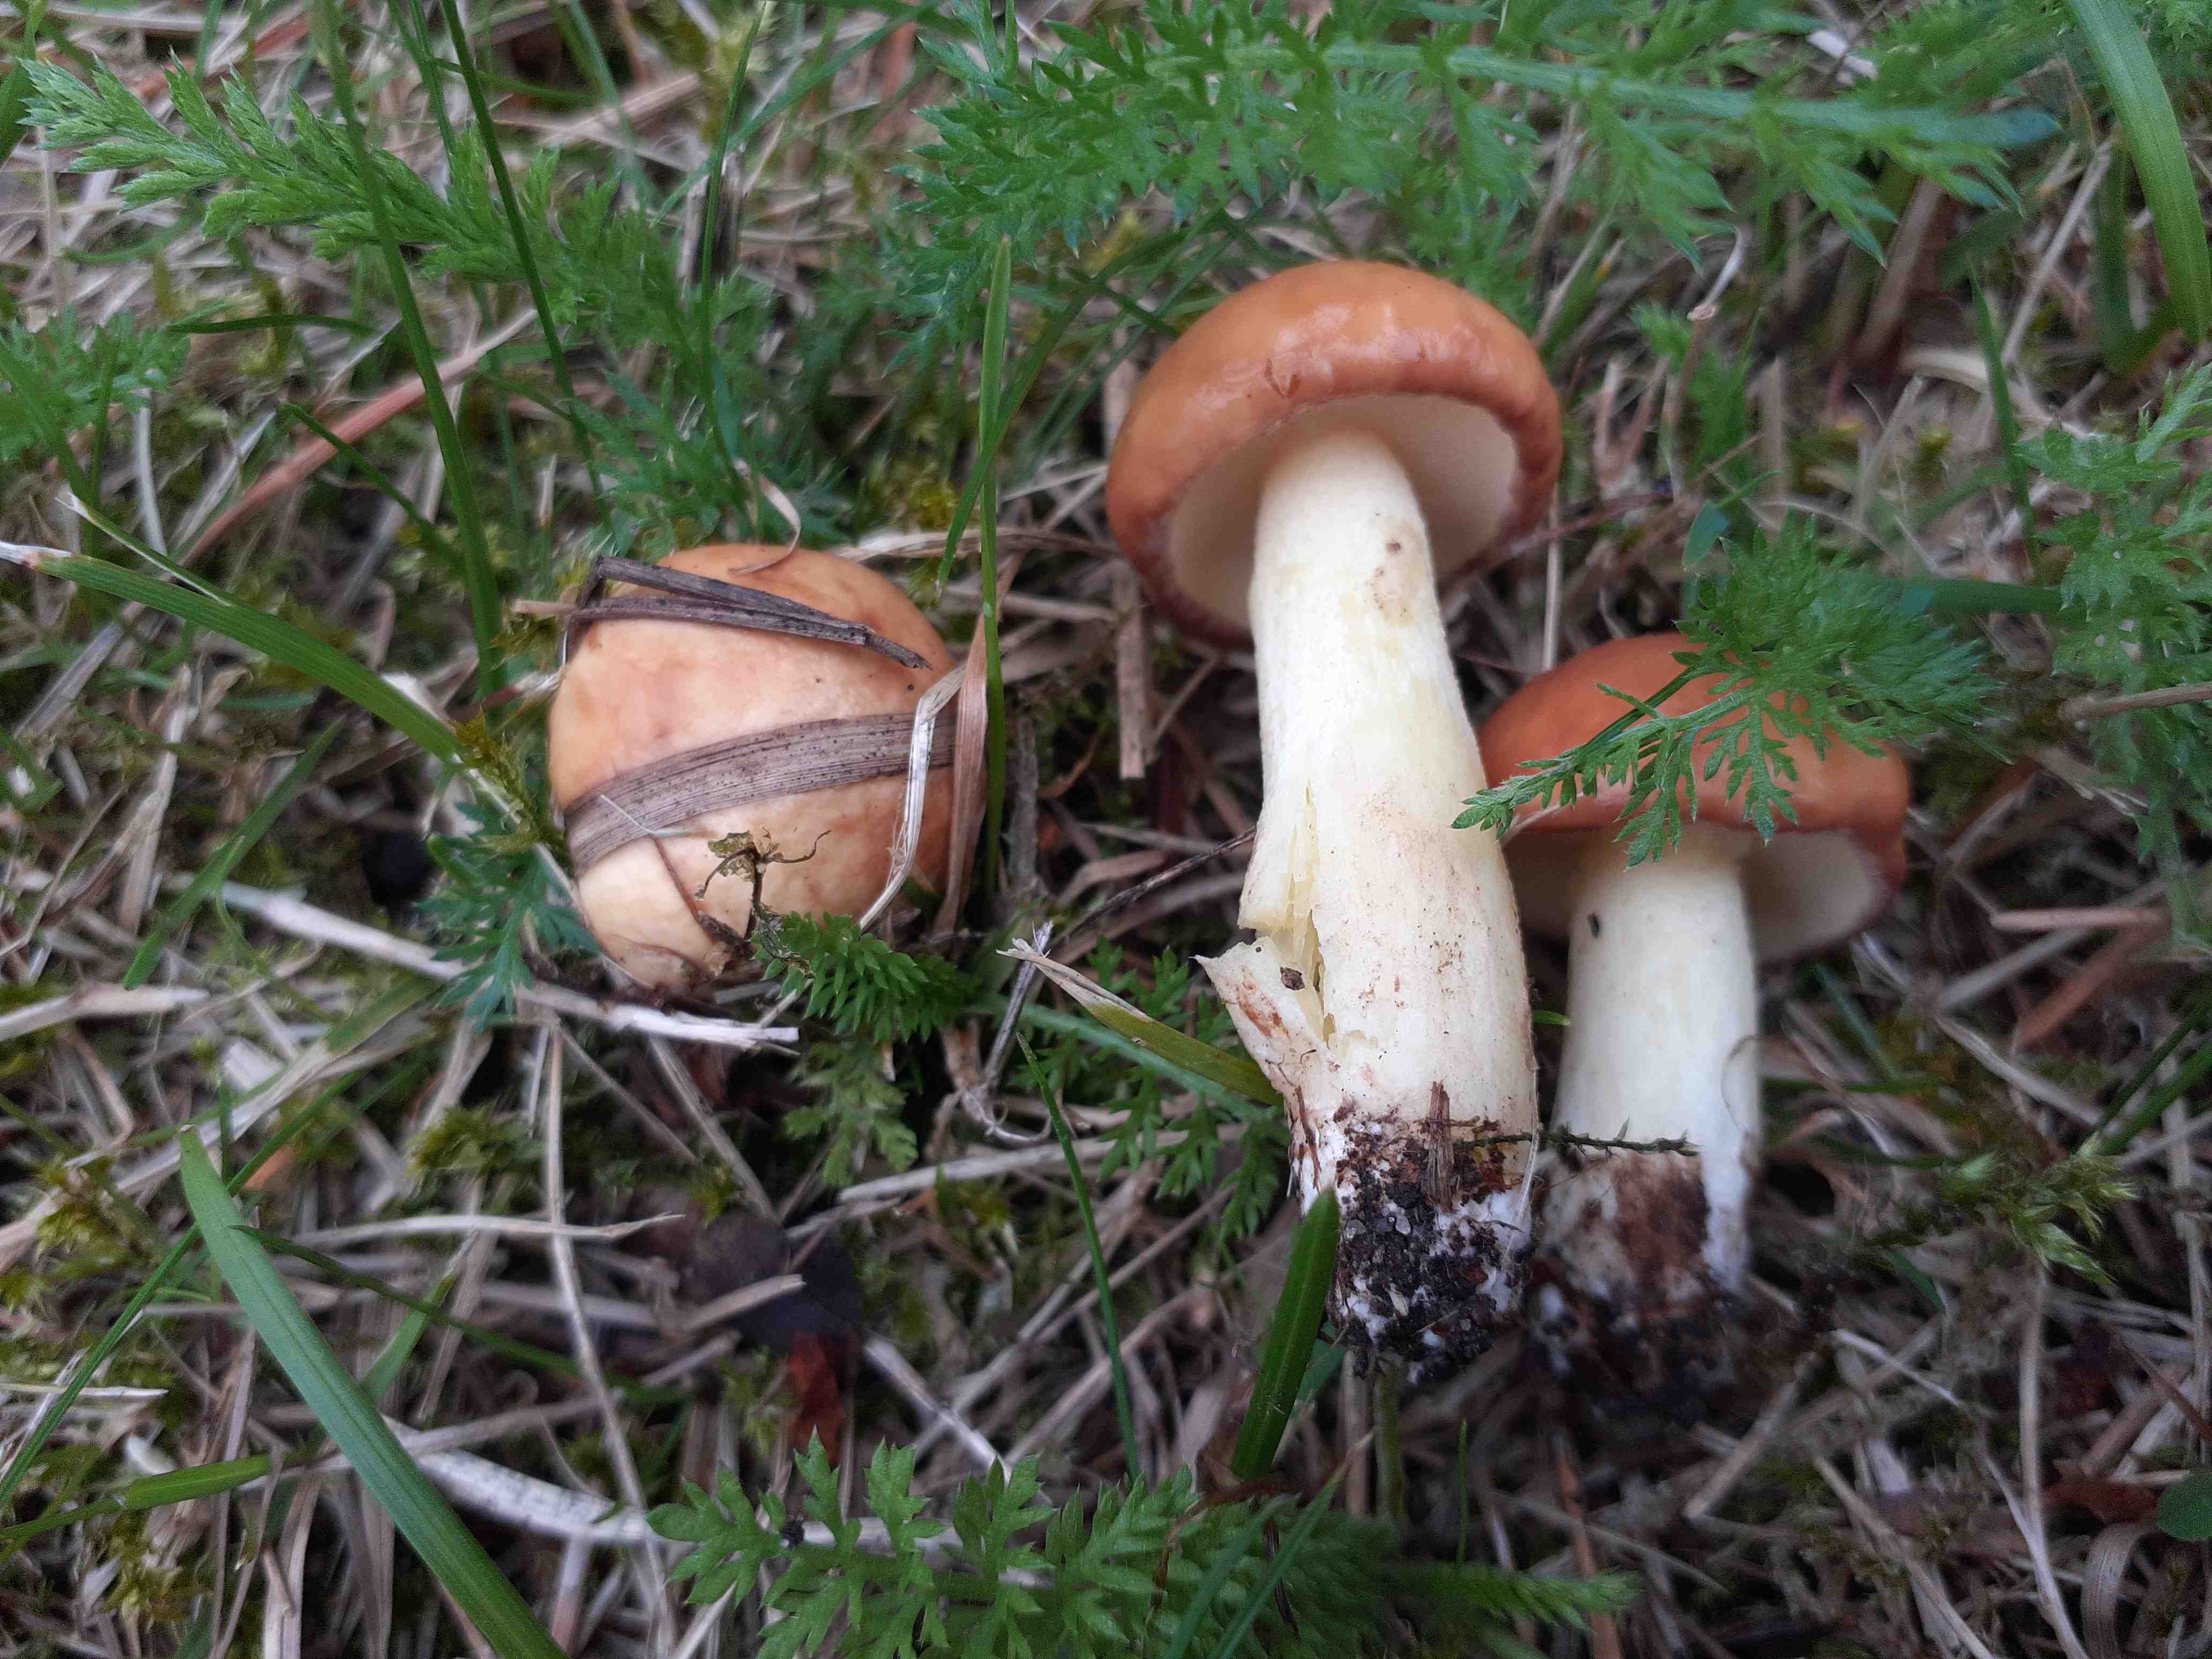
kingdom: Fungi
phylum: Basidiomycota
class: Agaricomycetes
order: Boletales
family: Suillaceae
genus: Suillus
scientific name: Suillus granulatus
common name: kornet slimrørhat
